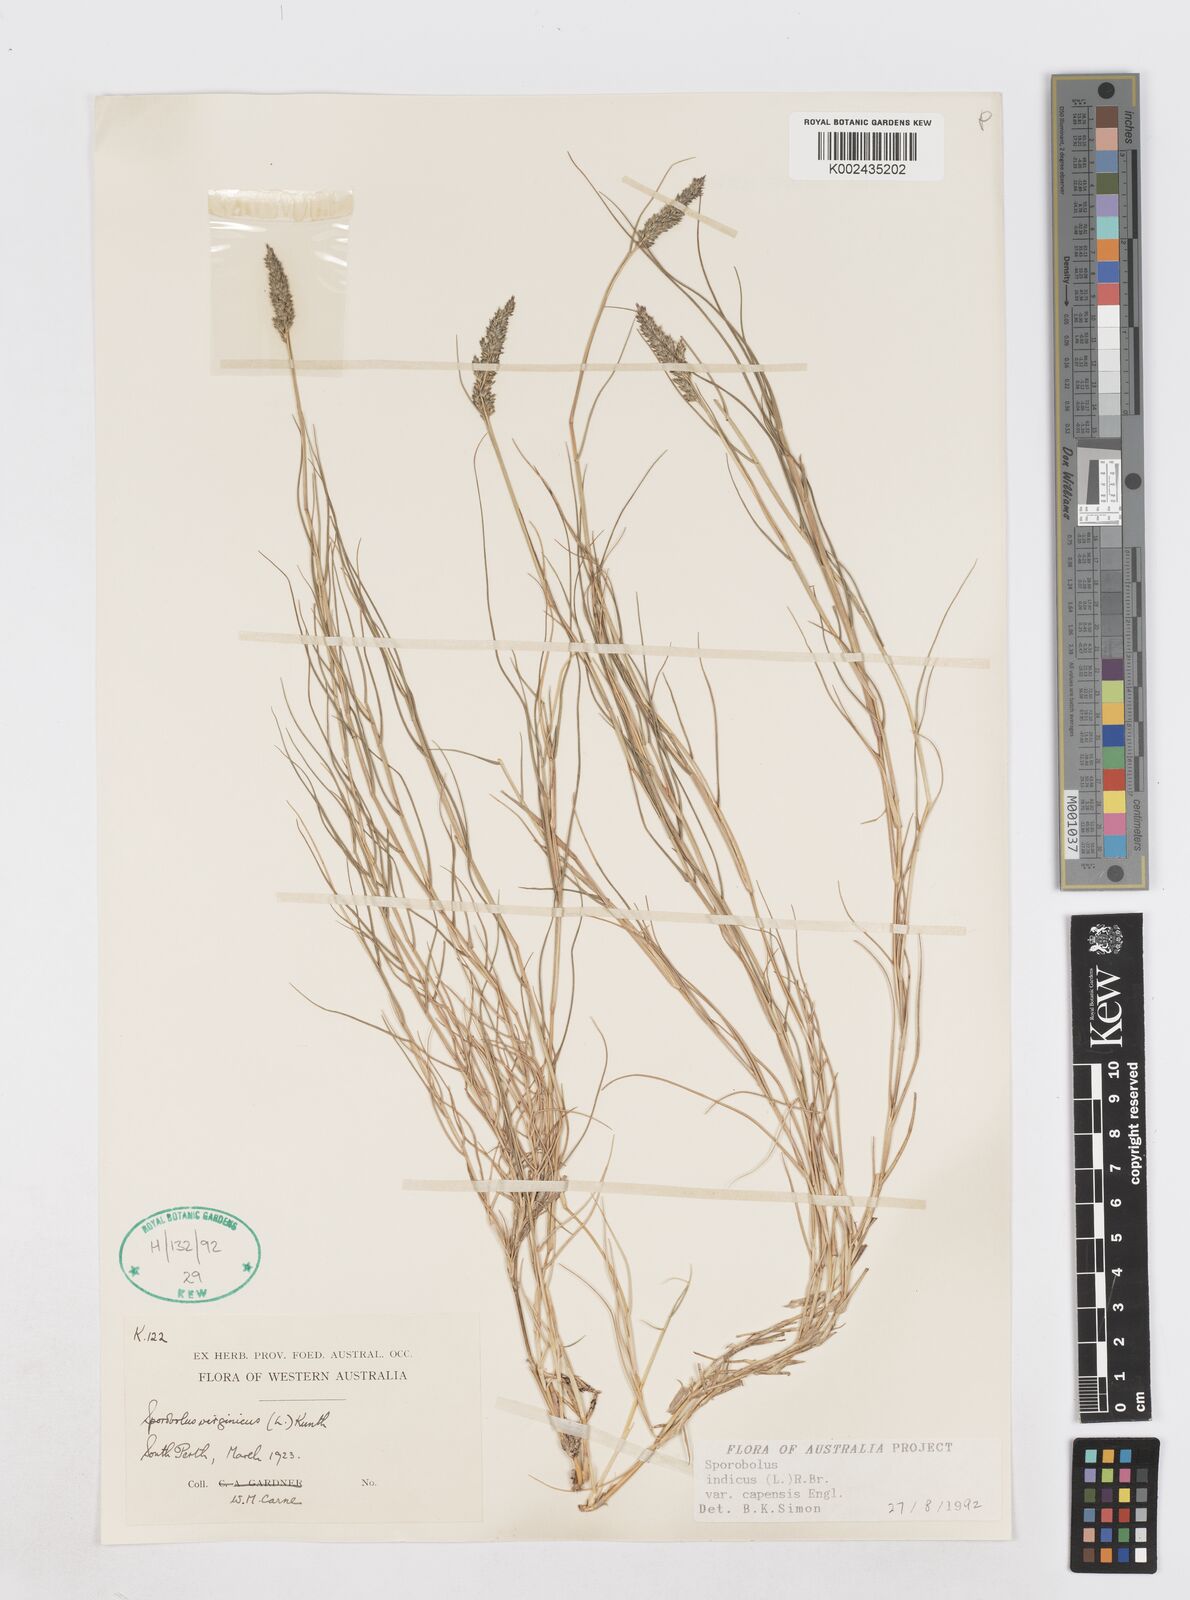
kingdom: Plantae
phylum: Tracheophyta
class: Liliopsida
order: Poales
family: Poaceae
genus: Sporobolus
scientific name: Sporobolus virginicus
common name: Beach dropseed
